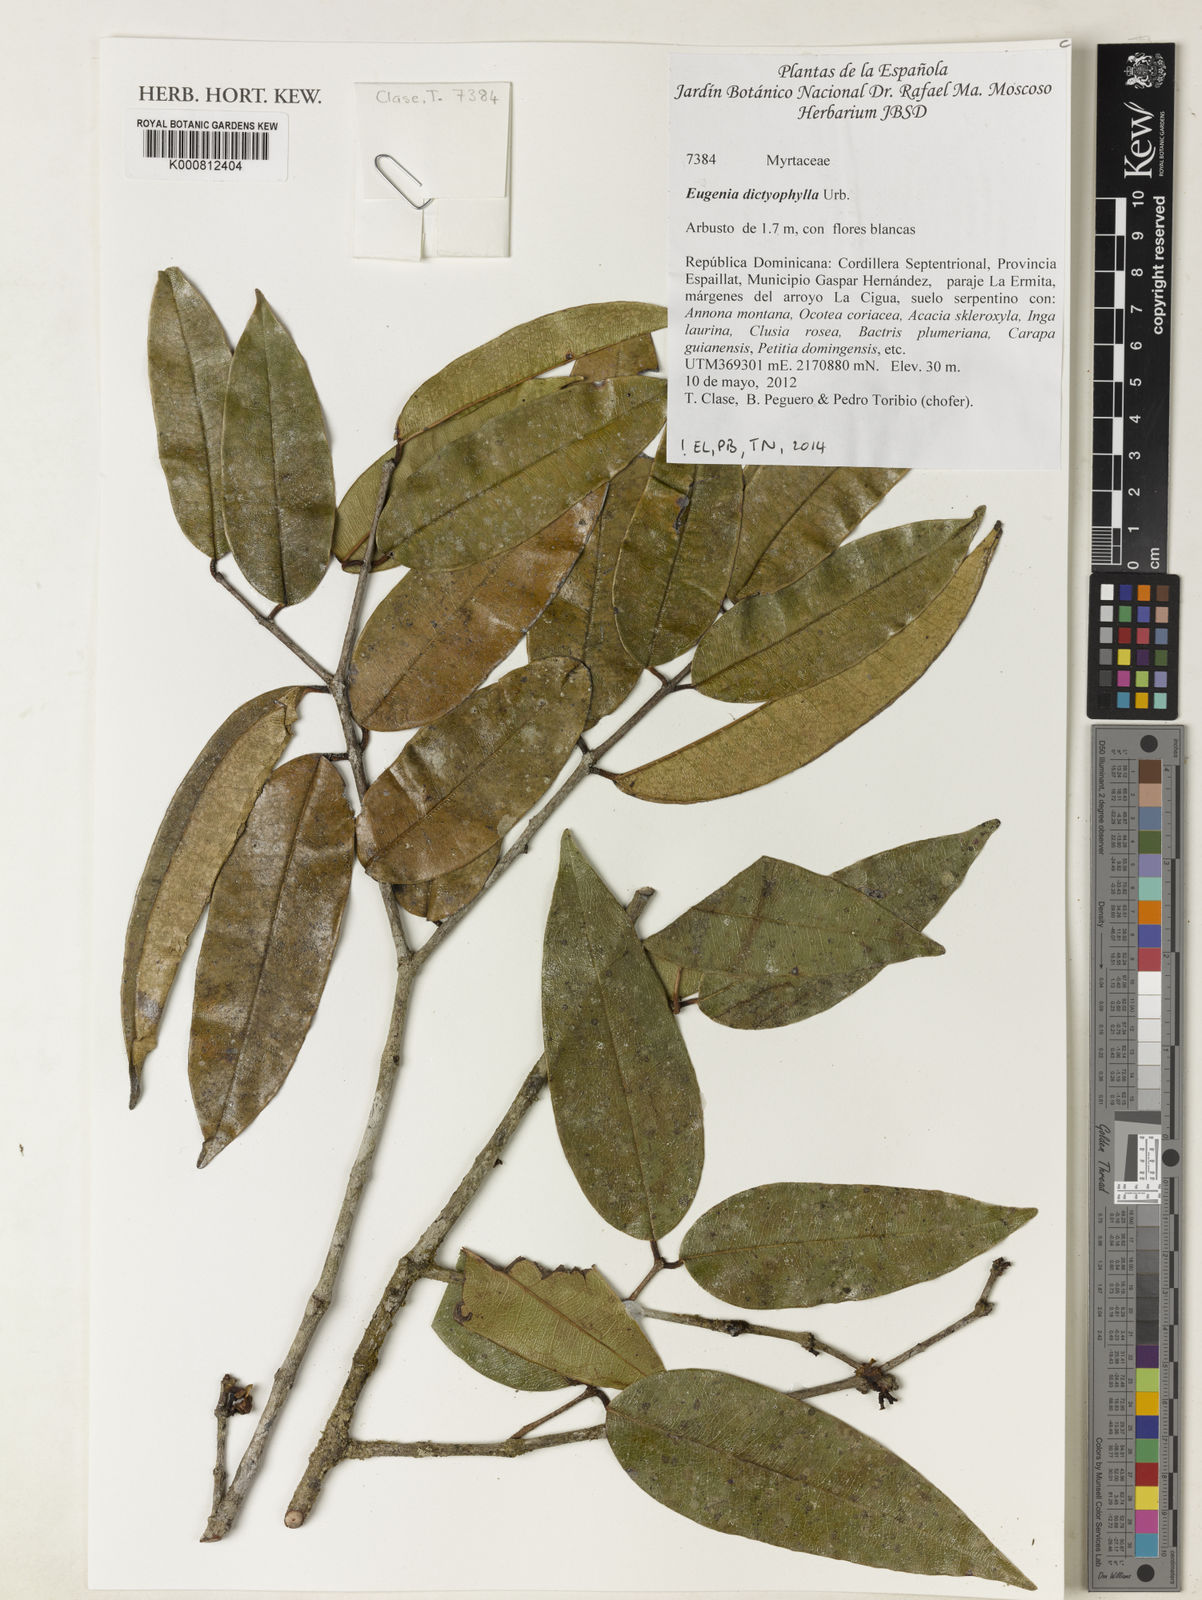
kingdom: Plantae
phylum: Tracheophyta
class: Magnoliopsida
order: Myrtales
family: Myrtaceae
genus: Eugenia
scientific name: Eugenia dictyophylla
